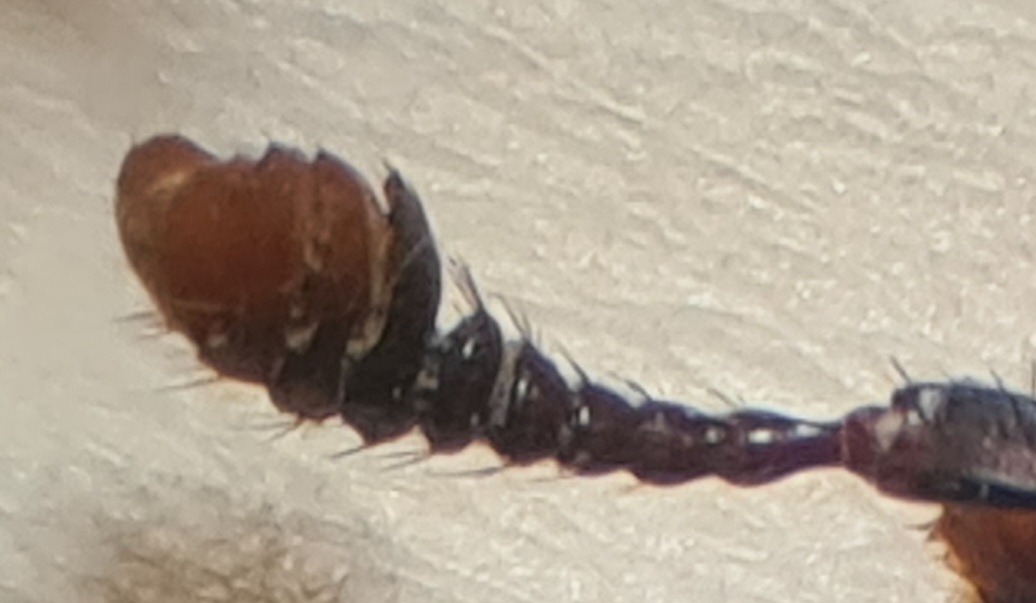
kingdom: Animalia
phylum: Arthropoda
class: Insecta
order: Coleoptera
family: Staphylinidae
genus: Nicrophorus
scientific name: Nicrophorus humator
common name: Sort ådselgraver
